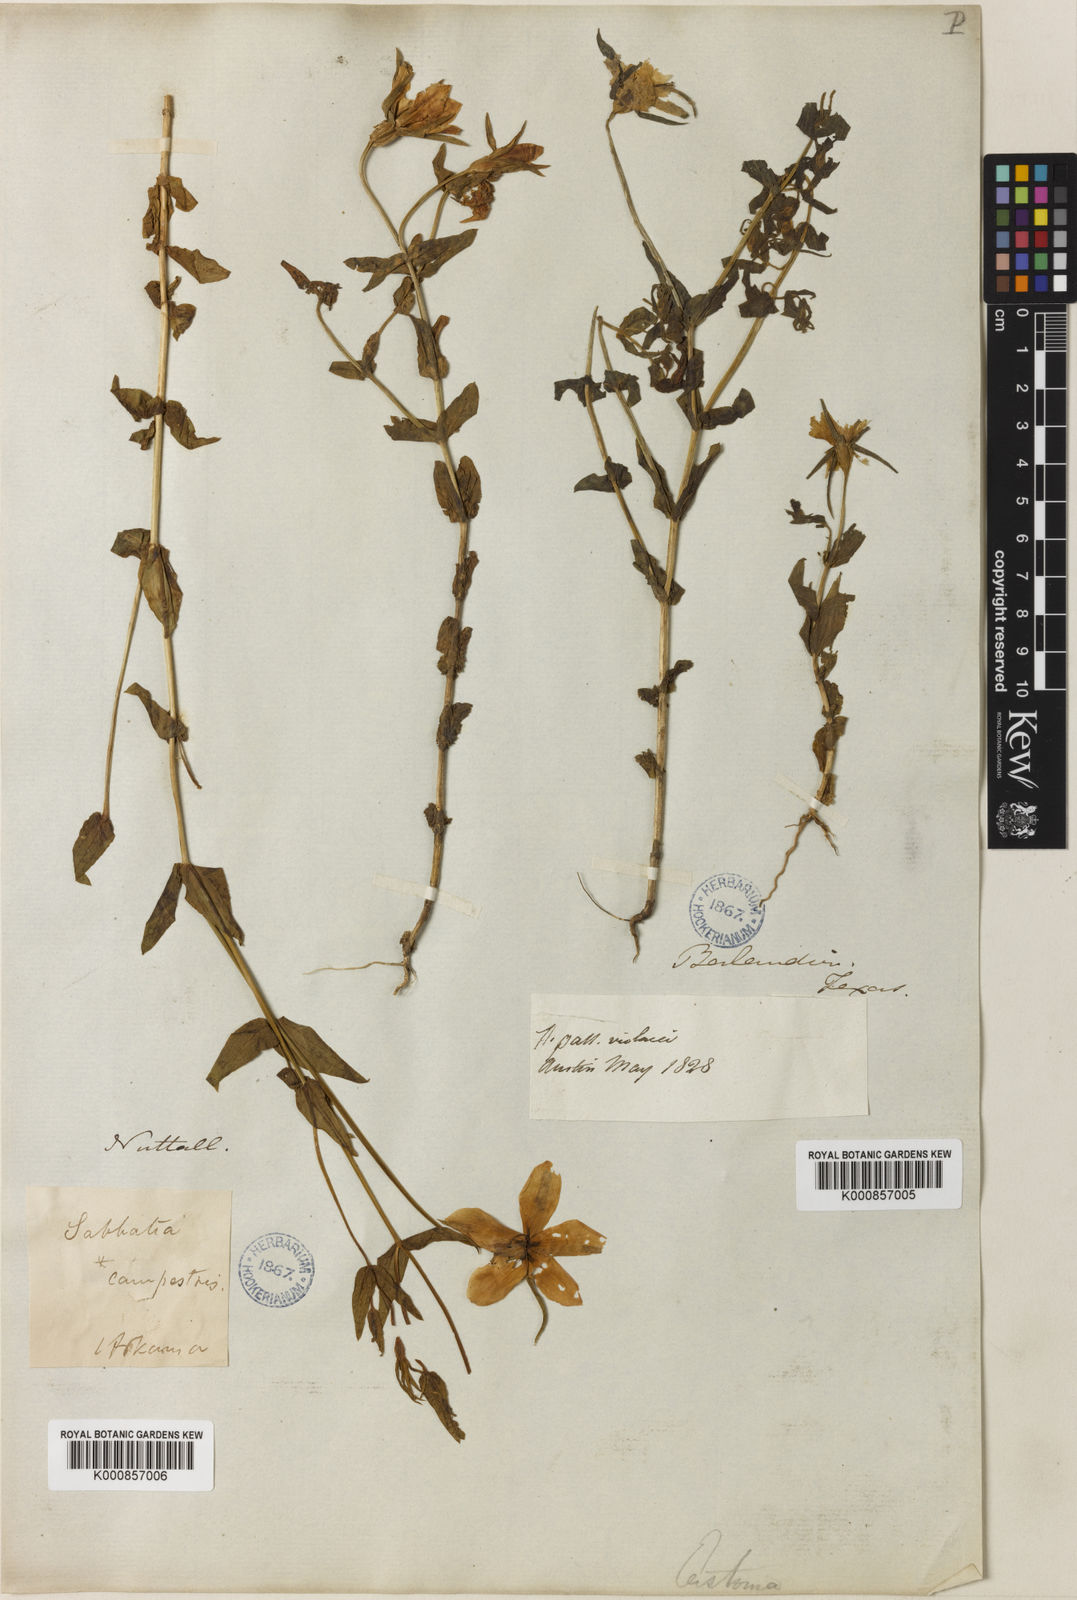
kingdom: Plantae
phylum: Tracheophyta
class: Magnoliopsida
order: Gentianales
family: Gentianaceae
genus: Sabatia
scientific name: Sabatia campestris
